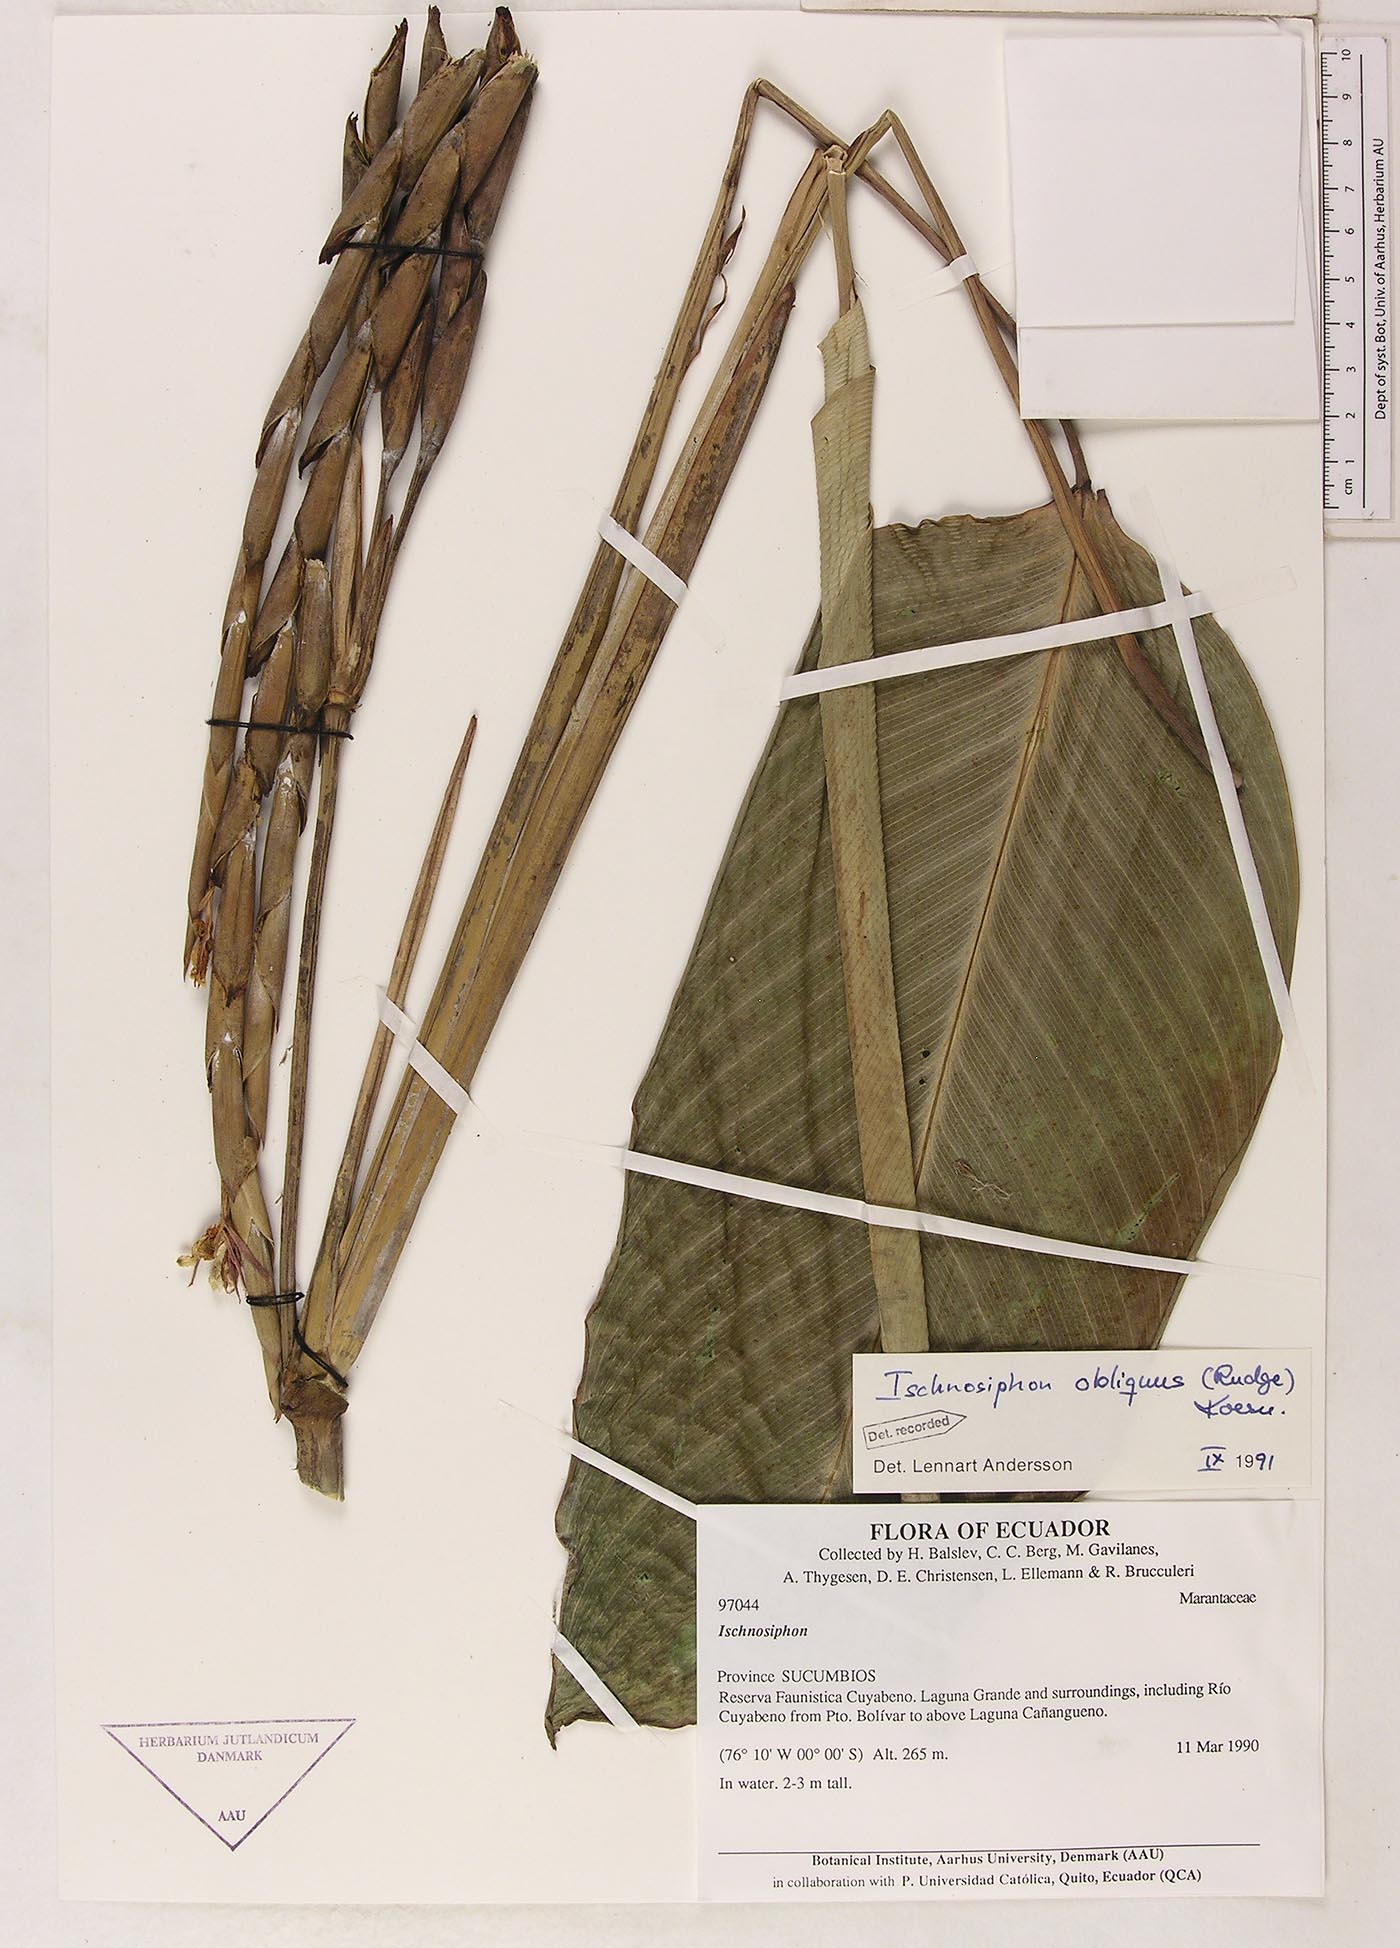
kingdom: Plantae
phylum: Tracheophyta
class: Liliopsida
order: Zingiberales
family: Marantaceae
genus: Ischnosiphon
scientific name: Ischnosiphon obliquus
